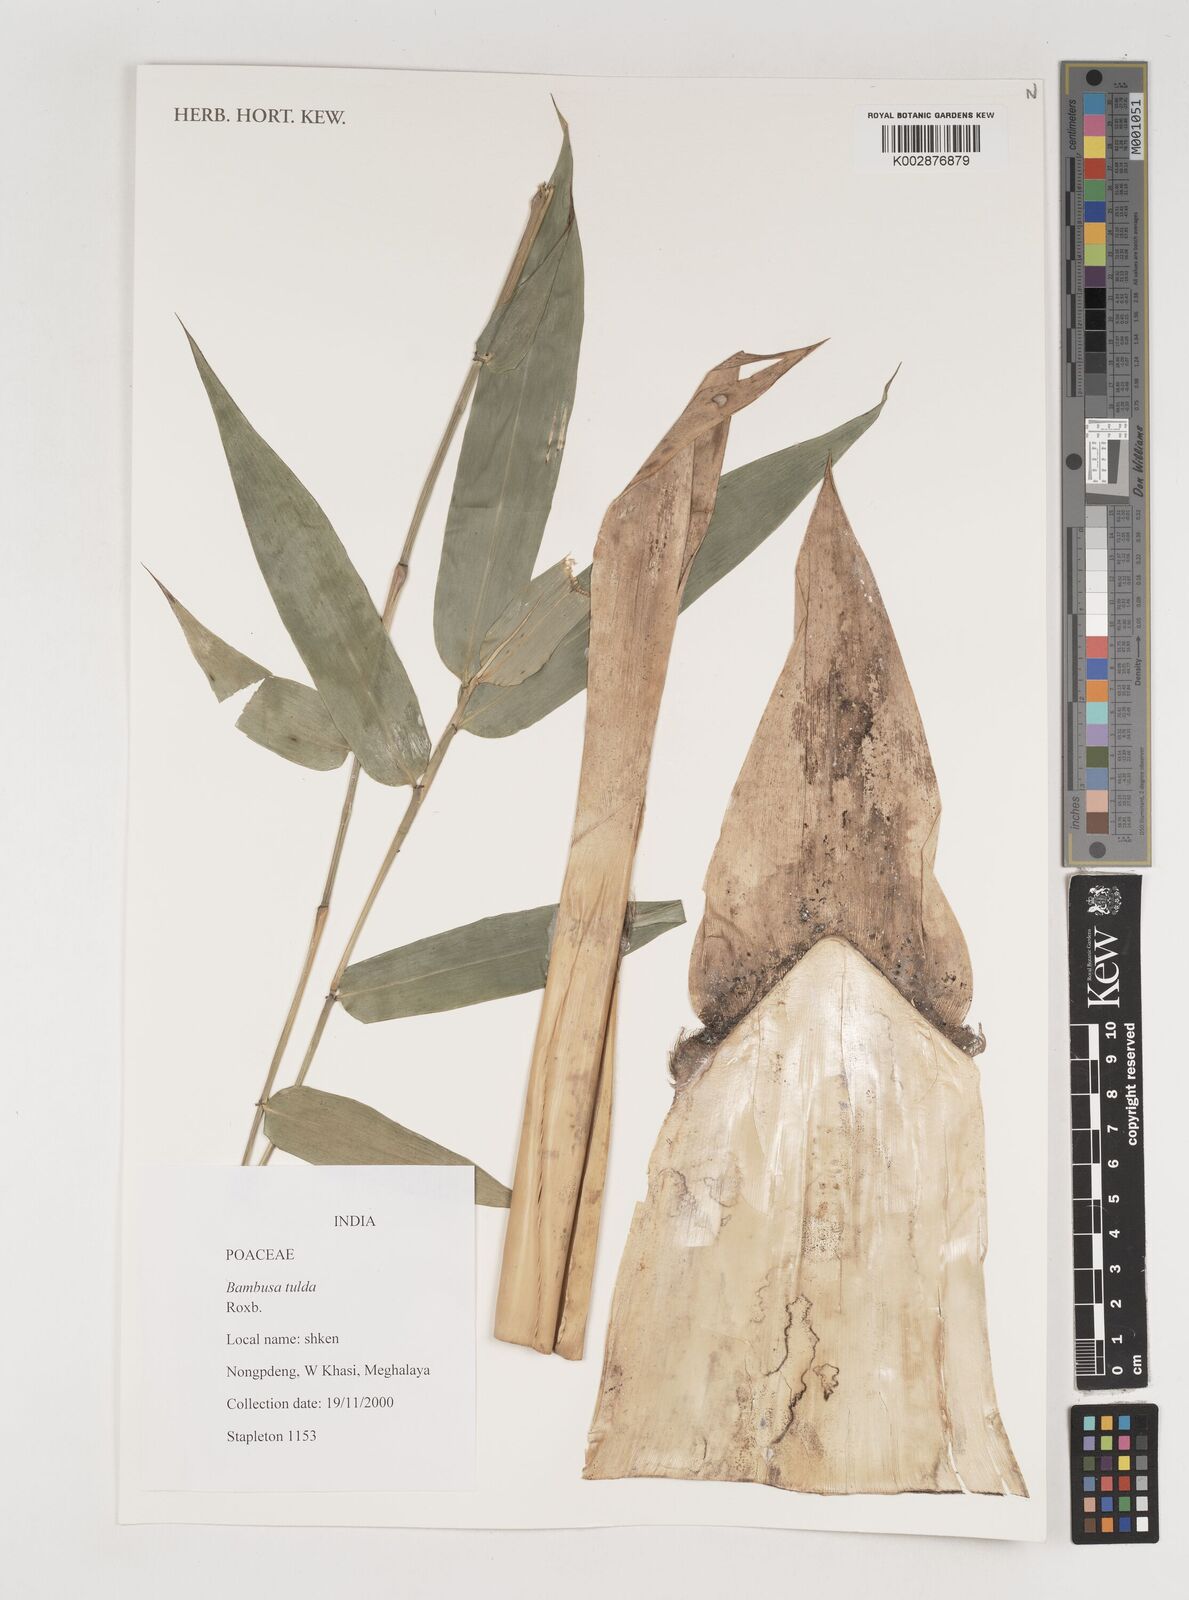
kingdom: Plantae
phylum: Tracheophyta
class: Liliopsida
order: Poales
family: Poaceae
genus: Bambusa
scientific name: Bambusa tuldoides
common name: Verdant bamboo
